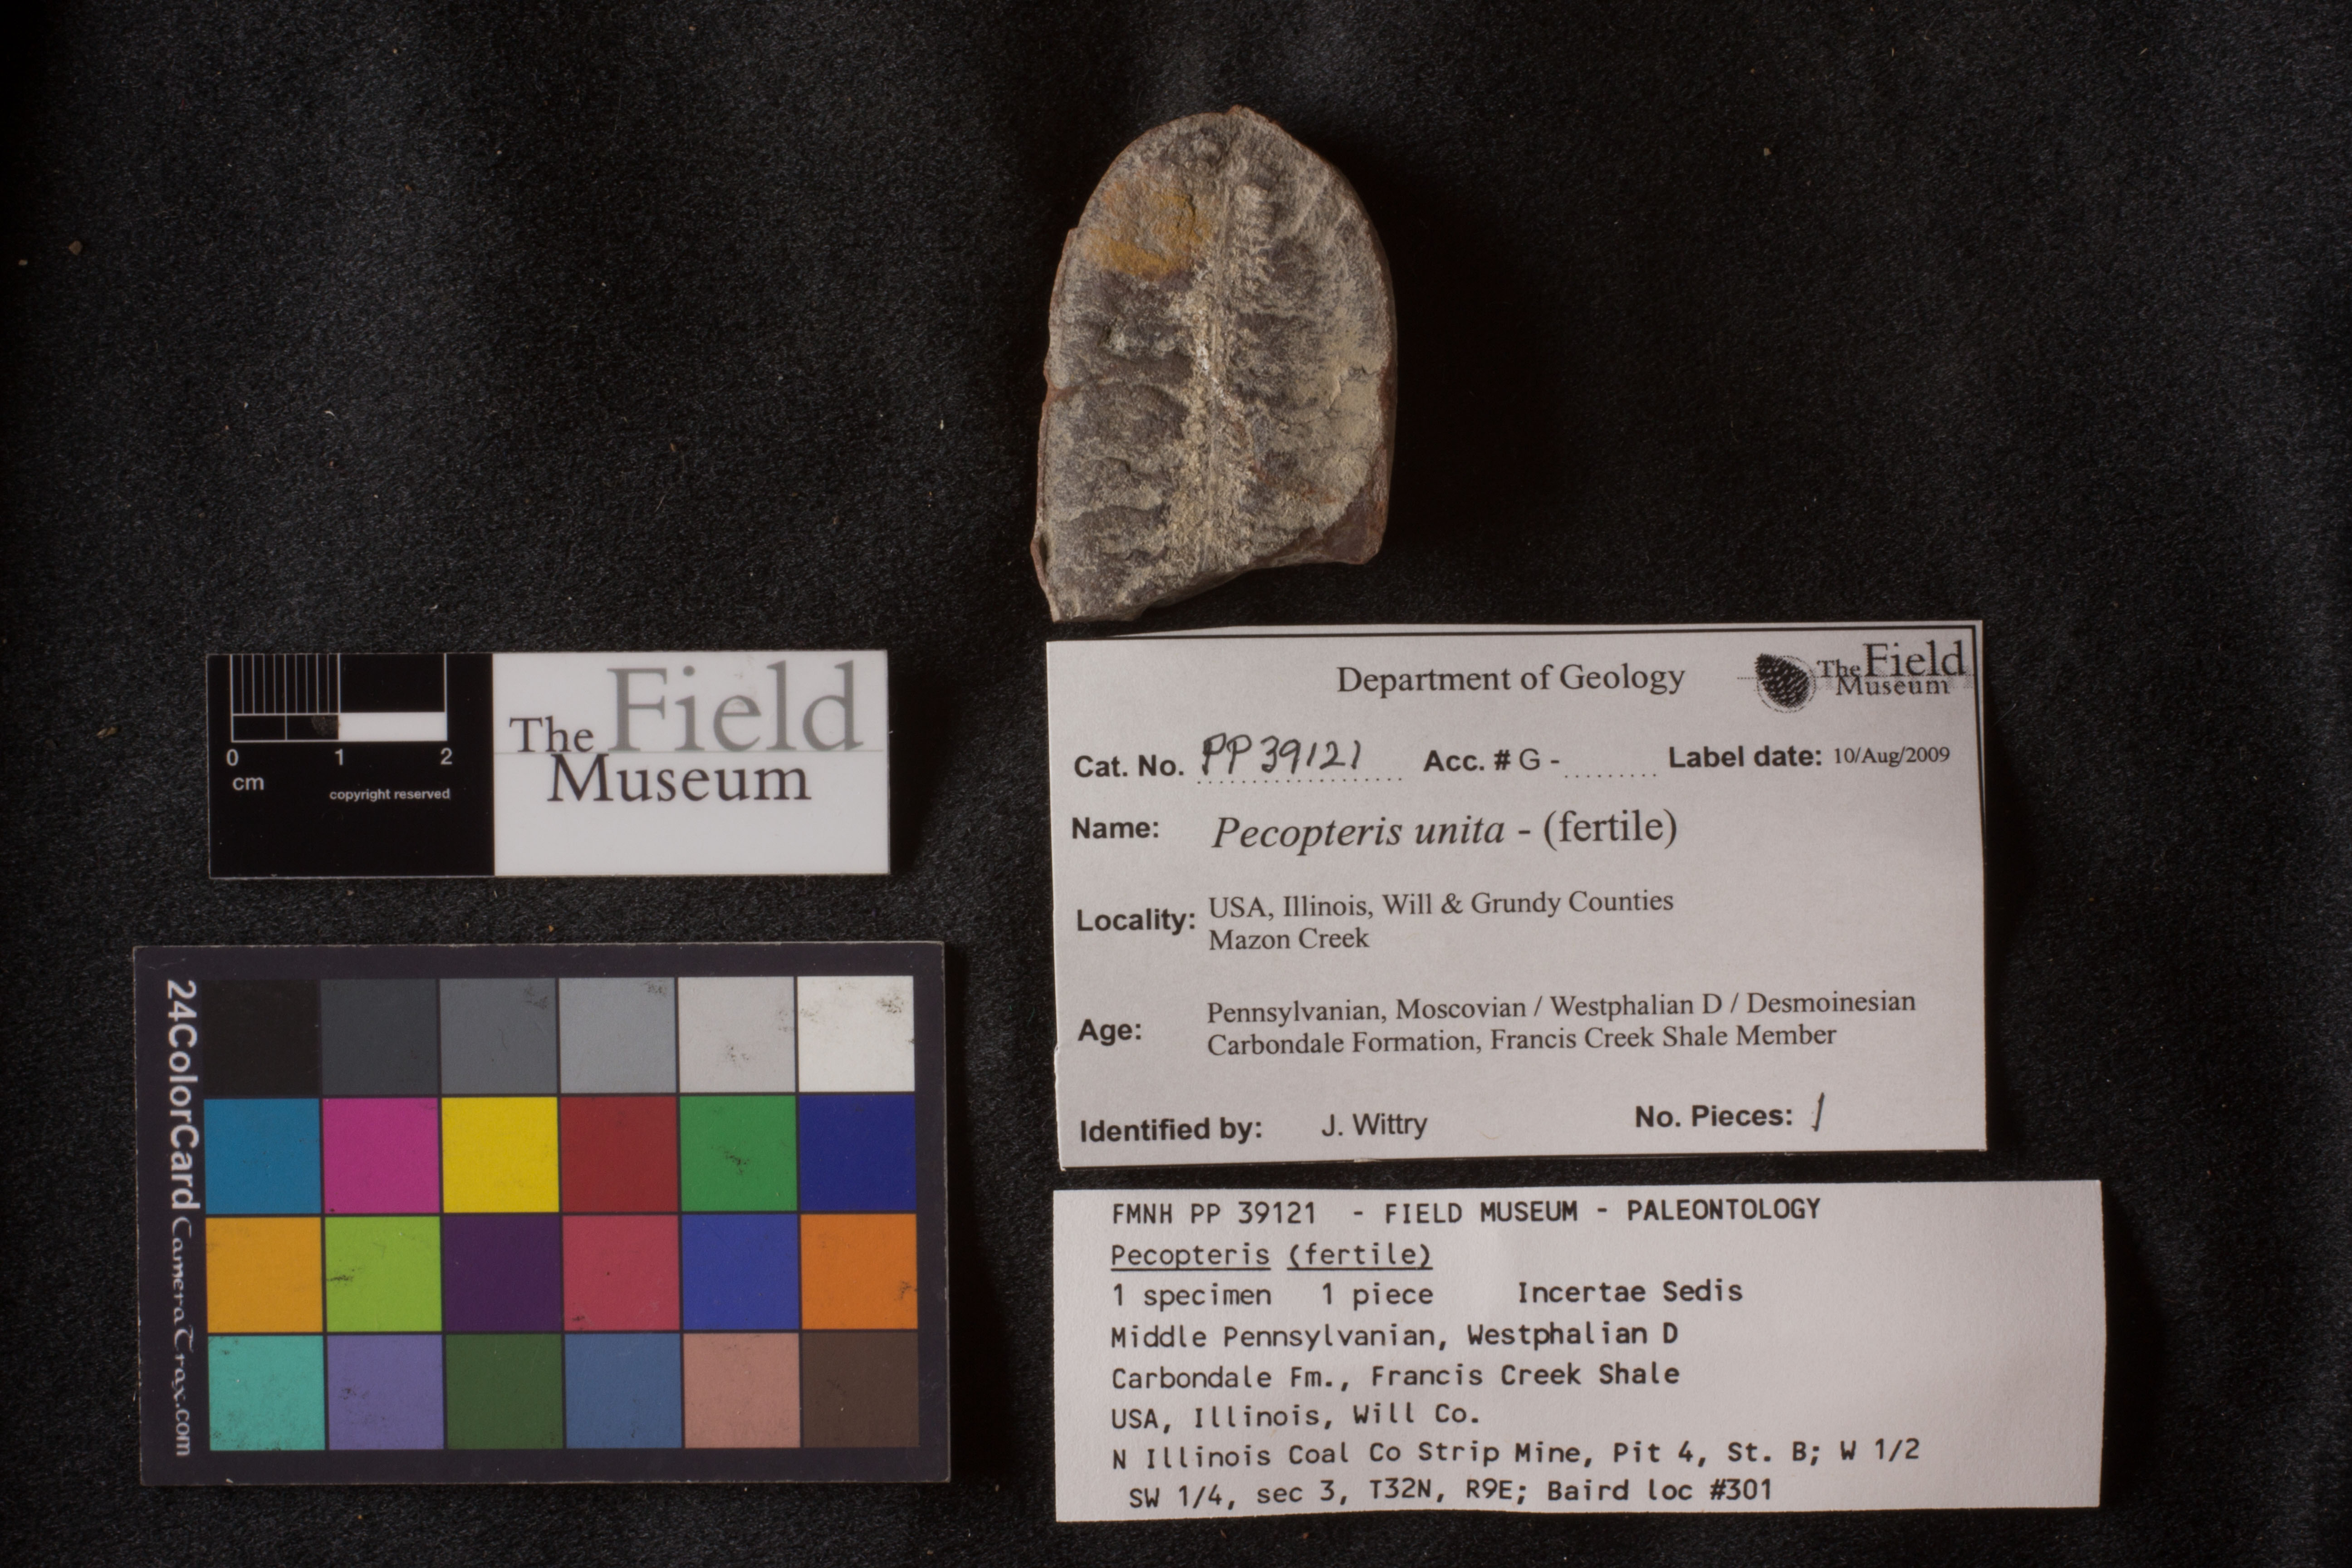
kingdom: Plantae
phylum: Tracheophyta
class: Polypodiopsida
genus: Diplazites
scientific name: Diplazites
